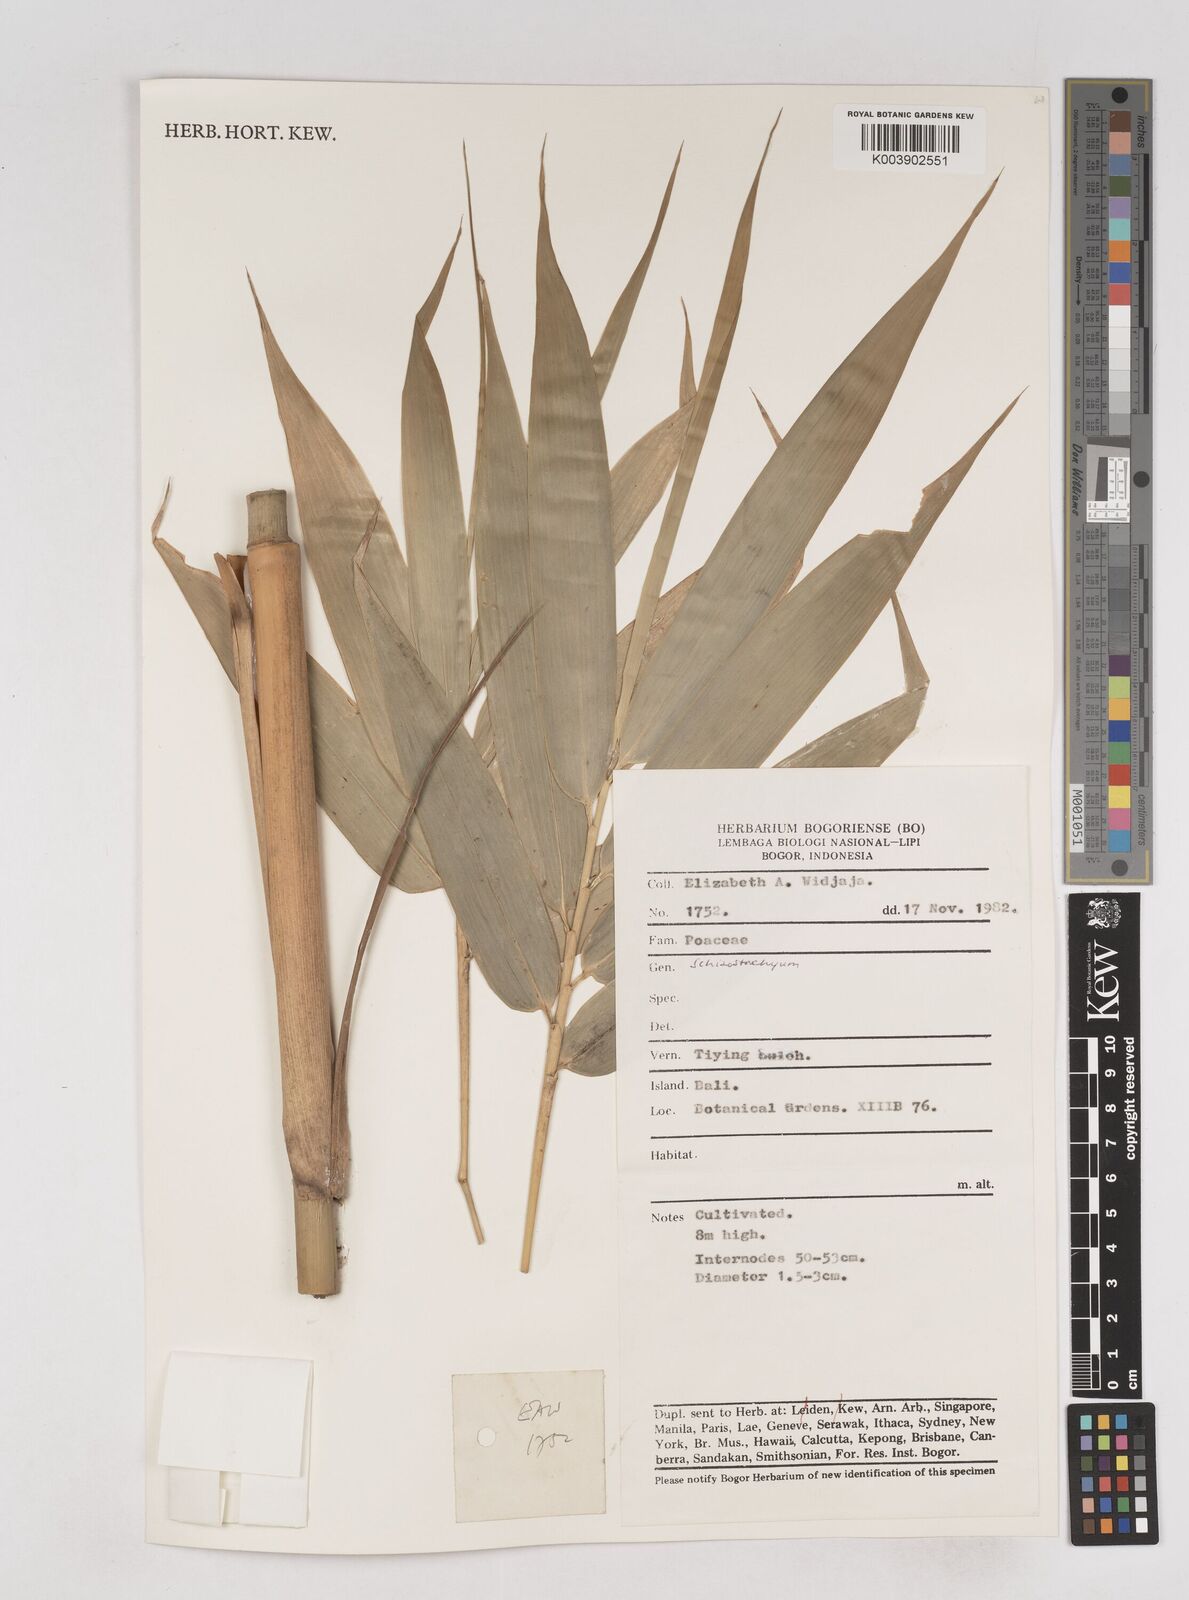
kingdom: Plantae
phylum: Tracheophyta
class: Liliopsida
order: Poales
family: Poaceae
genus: Schizostachyum
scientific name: Schizostachyum
